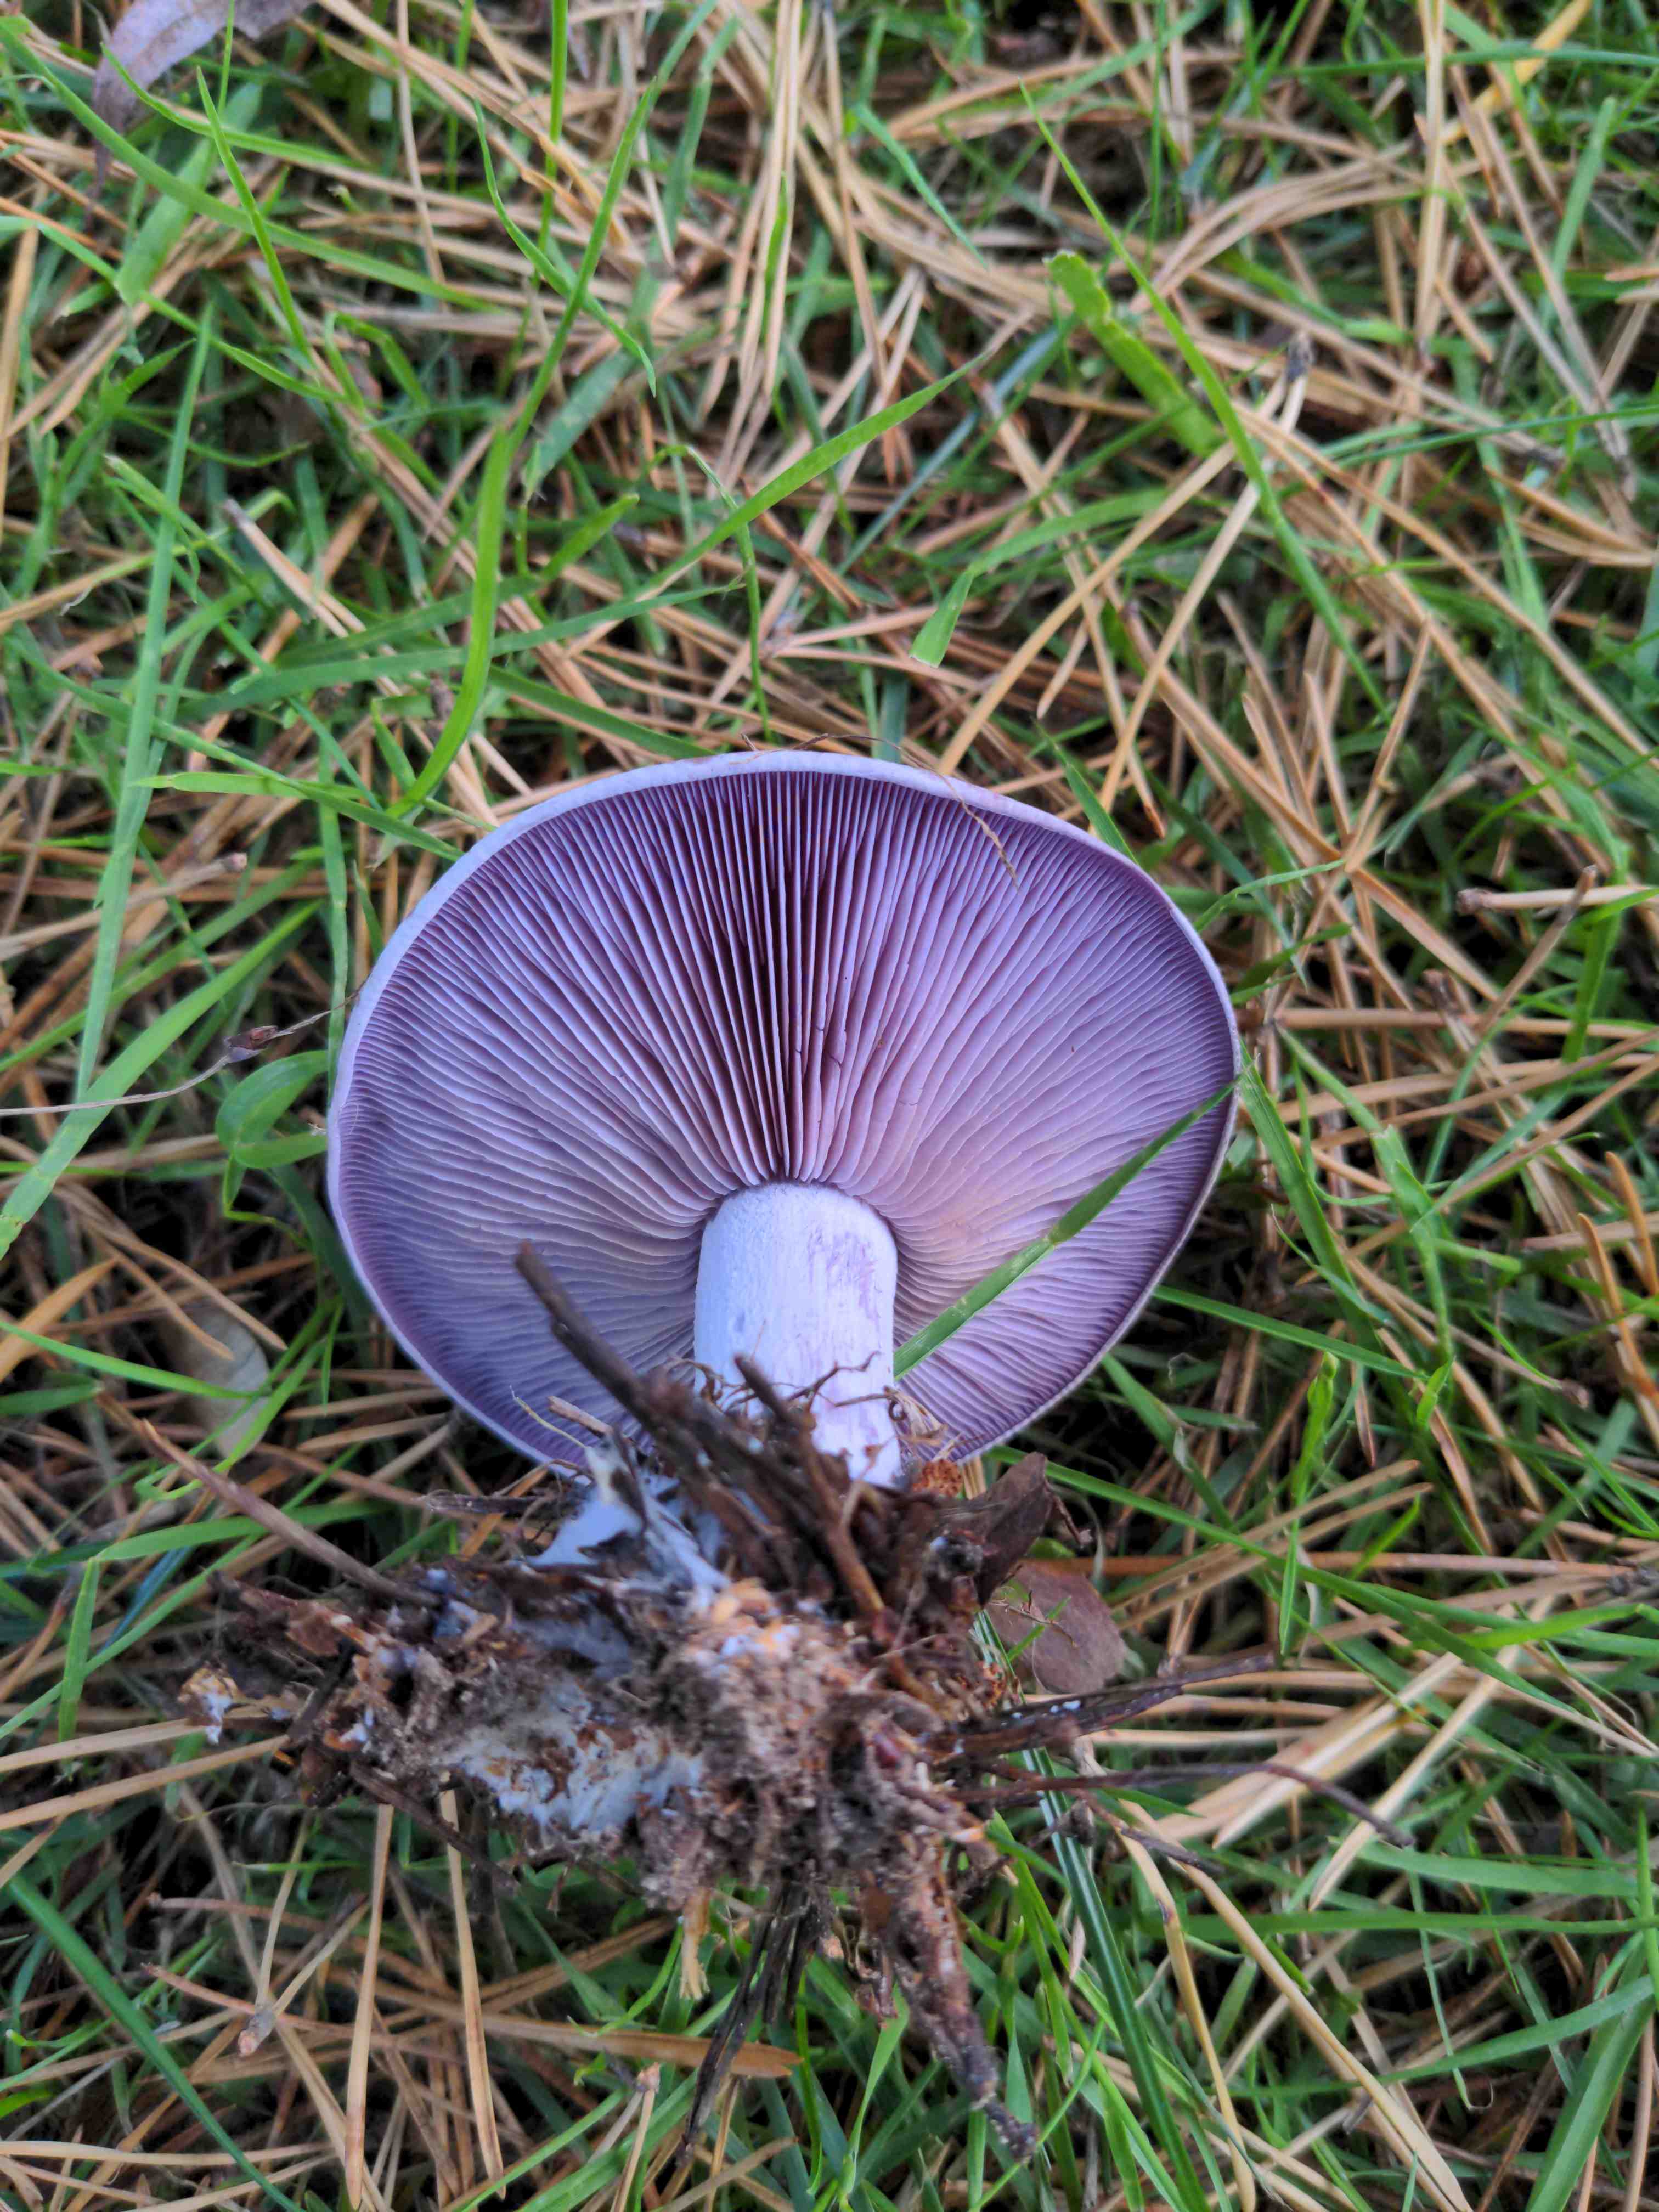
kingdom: Fungi
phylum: Basidiomycota
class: Agaricomycetes
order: Agaricales
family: Tricholomataceae
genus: Lepista
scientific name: Lepista nuda
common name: violet hekseringshat
